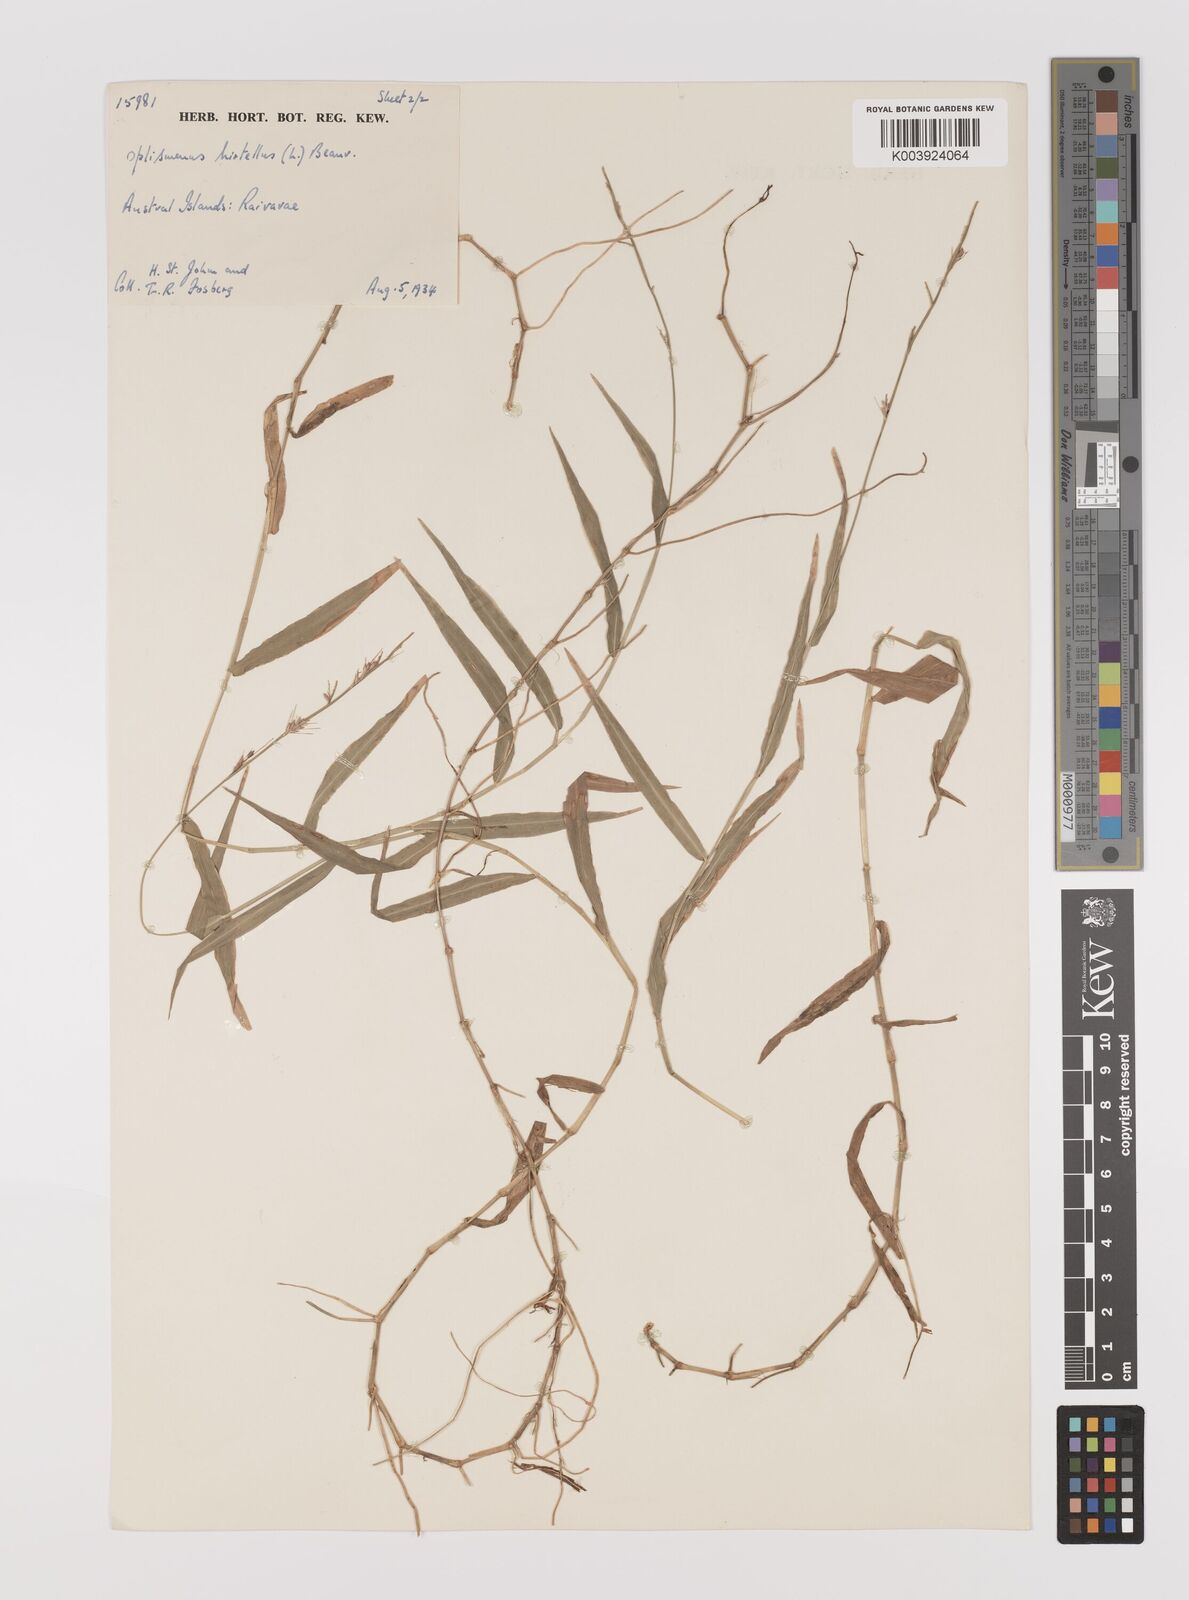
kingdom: Plantae
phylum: Tracheophyta
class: Liliopsida
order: Poales
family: Poaceae
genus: Oplismenus
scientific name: Oplismenus hirtellus
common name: Basketgrass
